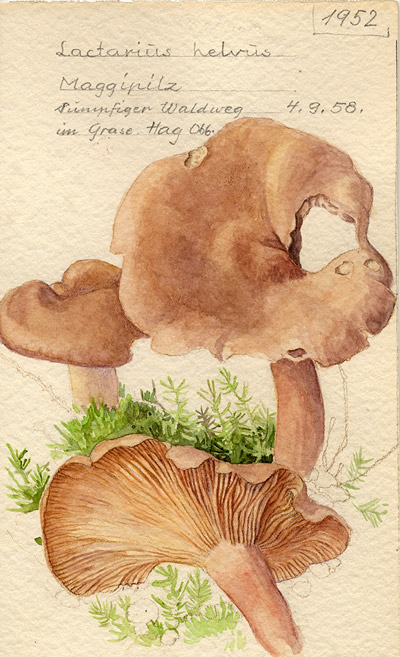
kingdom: Fungi
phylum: Basidiomycota
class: Agaricomycetes
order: Russulales
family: Russulaceae
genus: Lactarius
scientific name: Lactarius helvus
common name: Fenugreek milkcap
